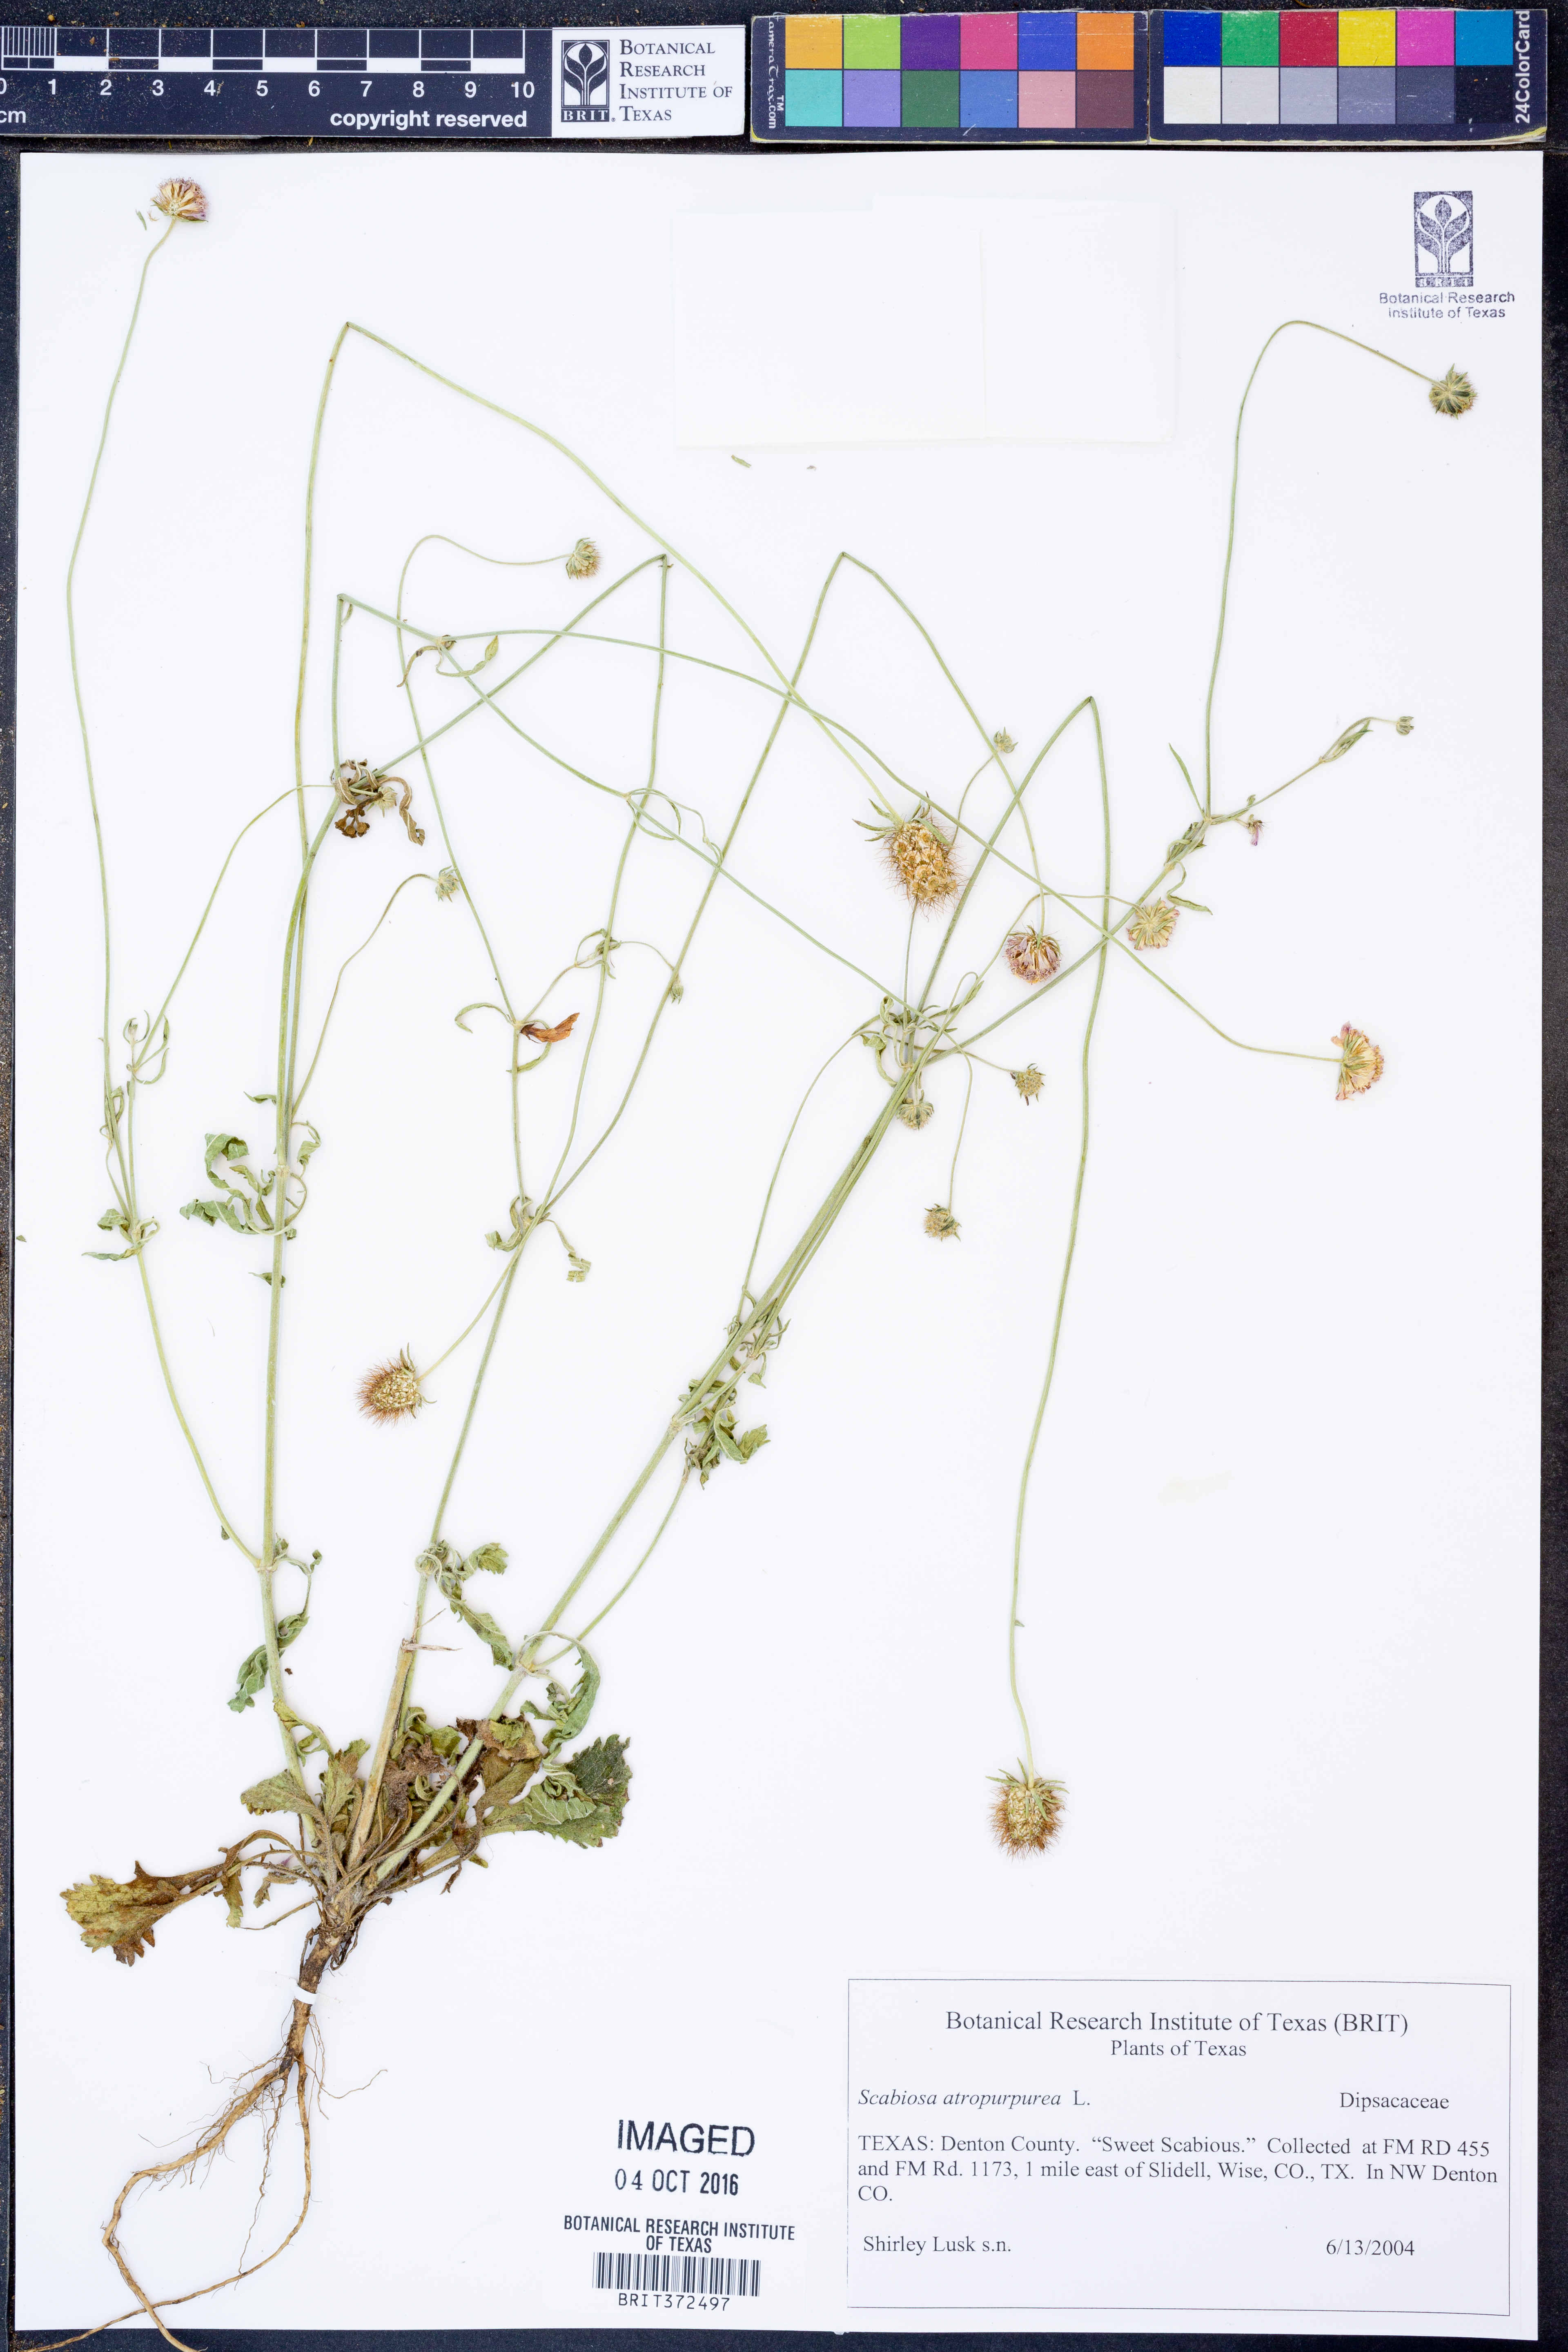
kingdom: Plantae
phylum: Tracheophyta
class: Magnoliopsida
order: Dipsacales
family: Caprifoliaceae
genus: Sixalix
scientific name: Sixalix atropurpurea
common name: Sweet scabious
